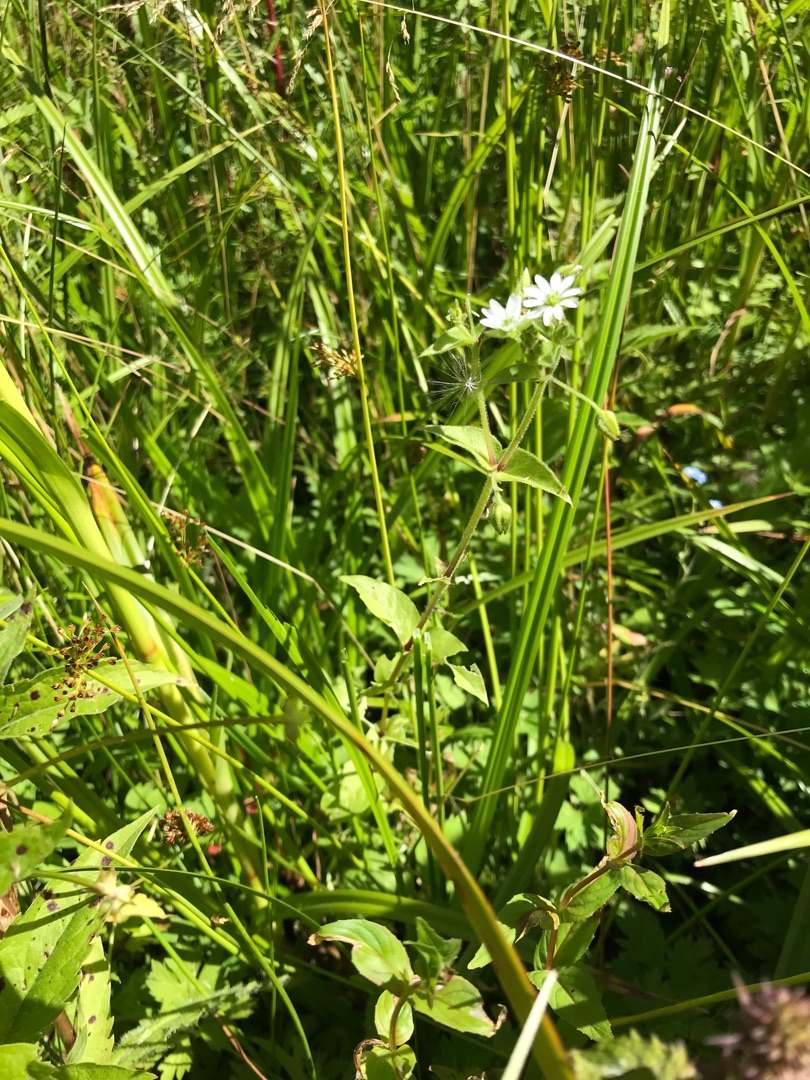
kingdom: Plantae
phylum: Tracheophyta
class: Magnoliopsida
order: Caryophyllales
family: Caryophyllaceae
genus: Stellaria
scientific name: Stellaria aquatica
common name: Kløvkrone
